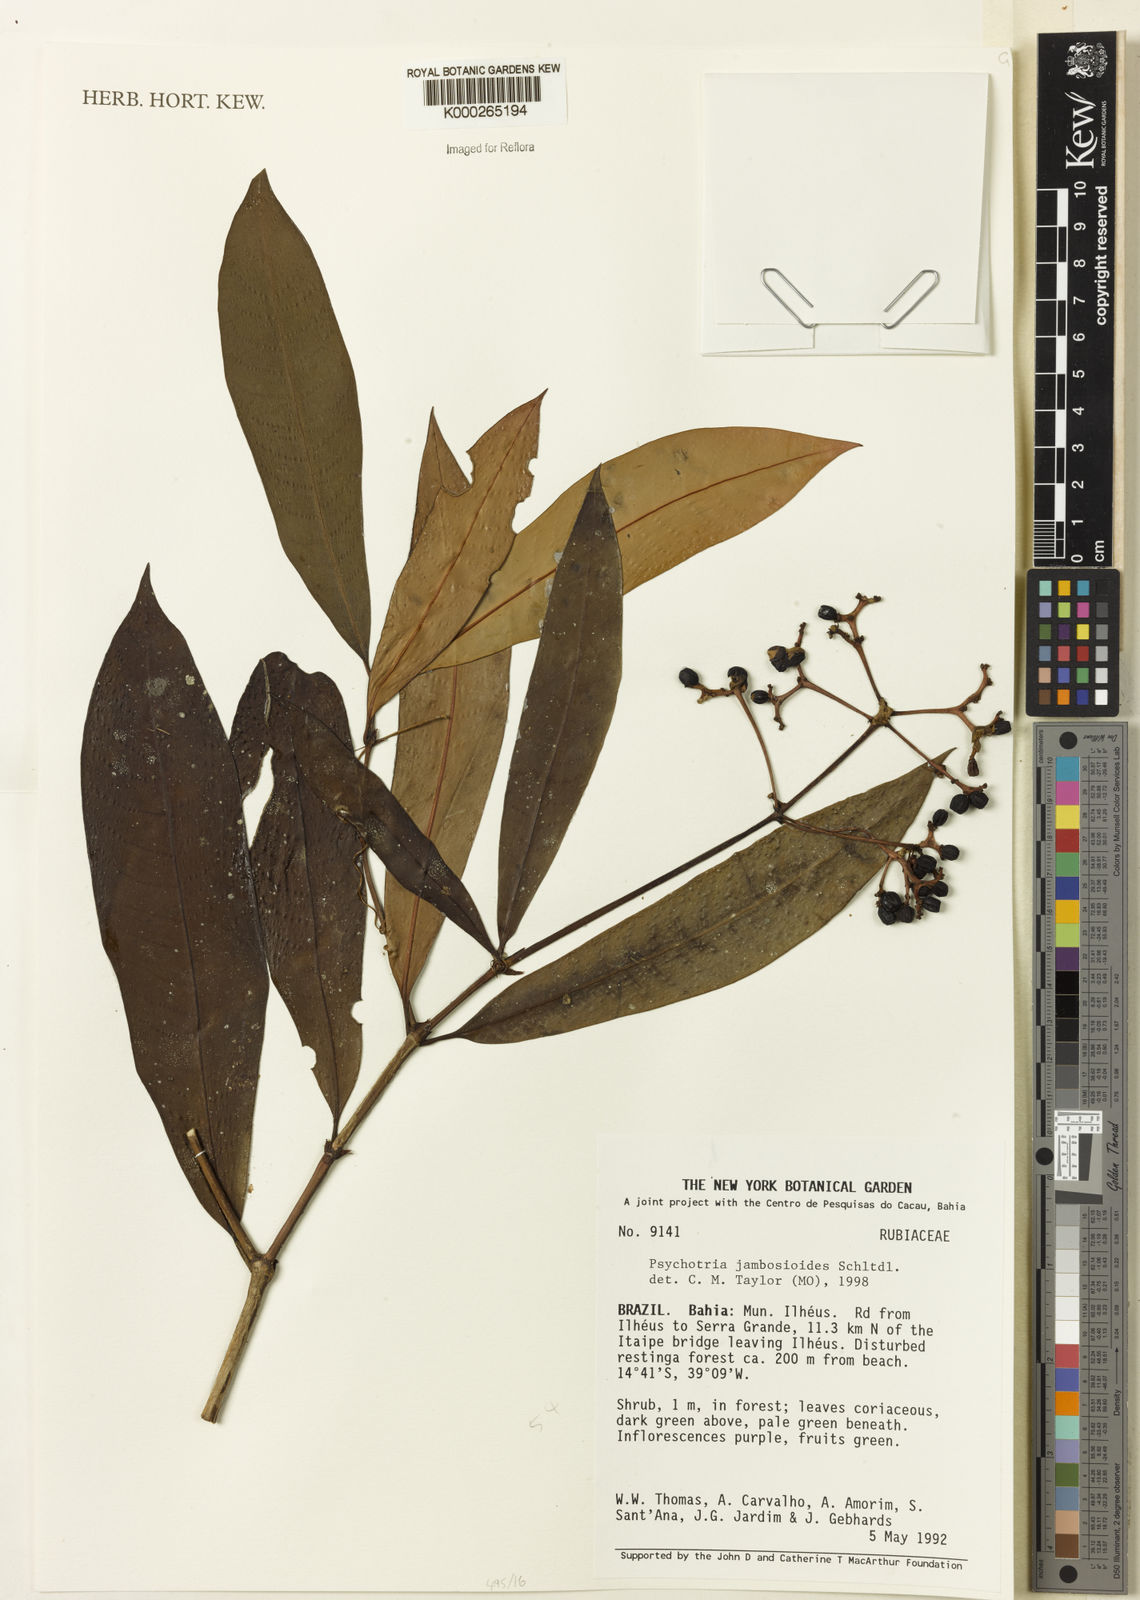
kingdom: Plantae
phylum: Tracheophyta
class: Magnoliopsida
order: Gentianales
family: Rubiaceae
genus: Palicourea
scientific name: Palicourea jambosioides
